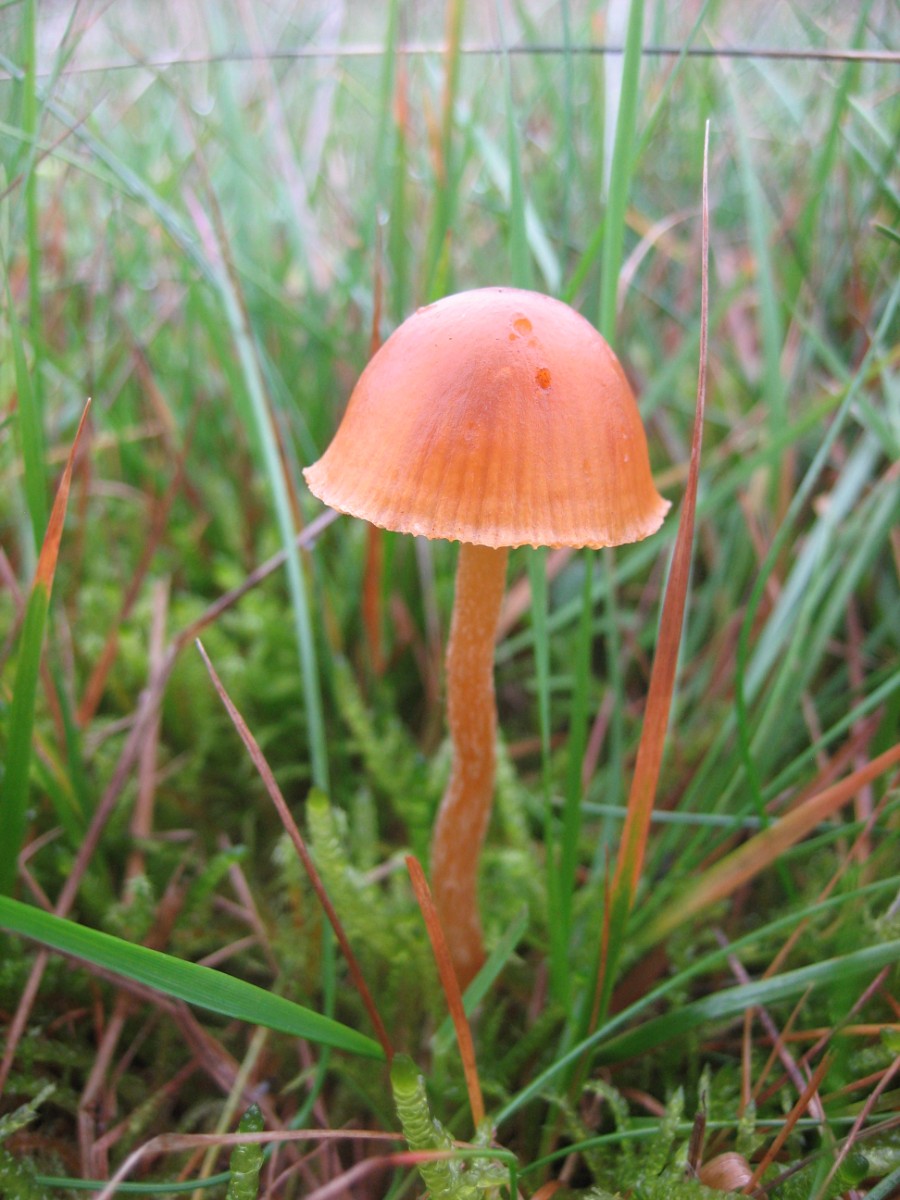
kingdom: Fungi
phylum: Basidiomycota
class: Agaricomycetes
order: Agaricales
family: Hydnangiaceae
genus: Laccaria
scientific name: Laccaria laccata
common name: rød ametysthat
